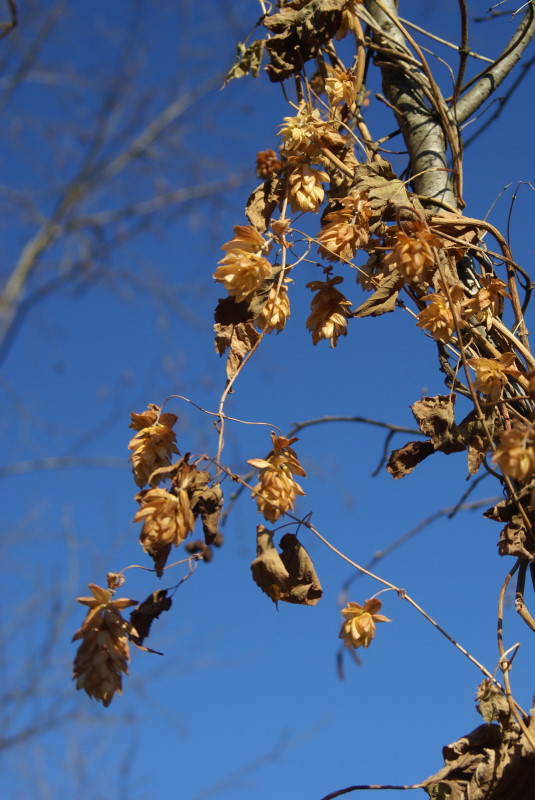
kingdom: Plantae
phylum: Tracheophyta
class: Magnoliopsida
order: Rosales
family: Cannabaceae
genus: Humulus
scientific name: Humulus lupulus
